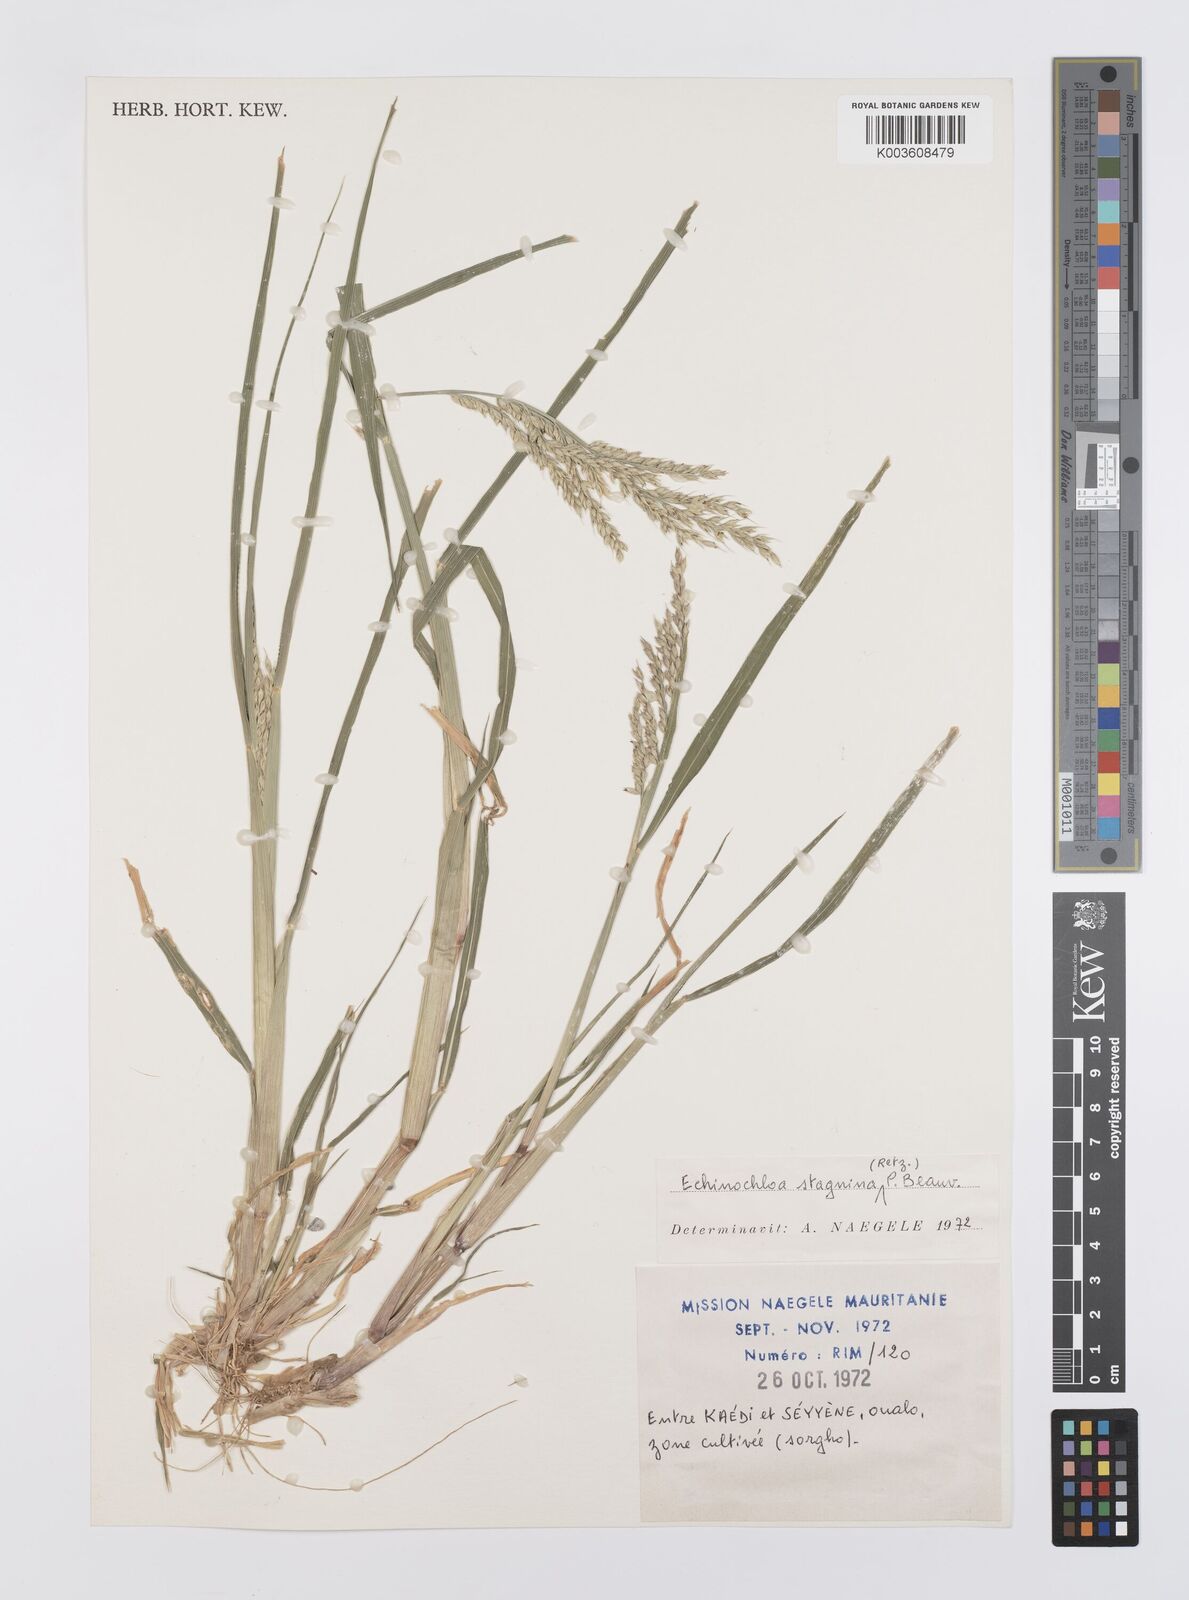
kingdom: Plantae
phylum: Tracheophyta
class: Liliopsida
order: Poales
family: Poaceae
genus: Echinochloa
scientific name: Echinochloa stagnina
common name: Burgu grass
